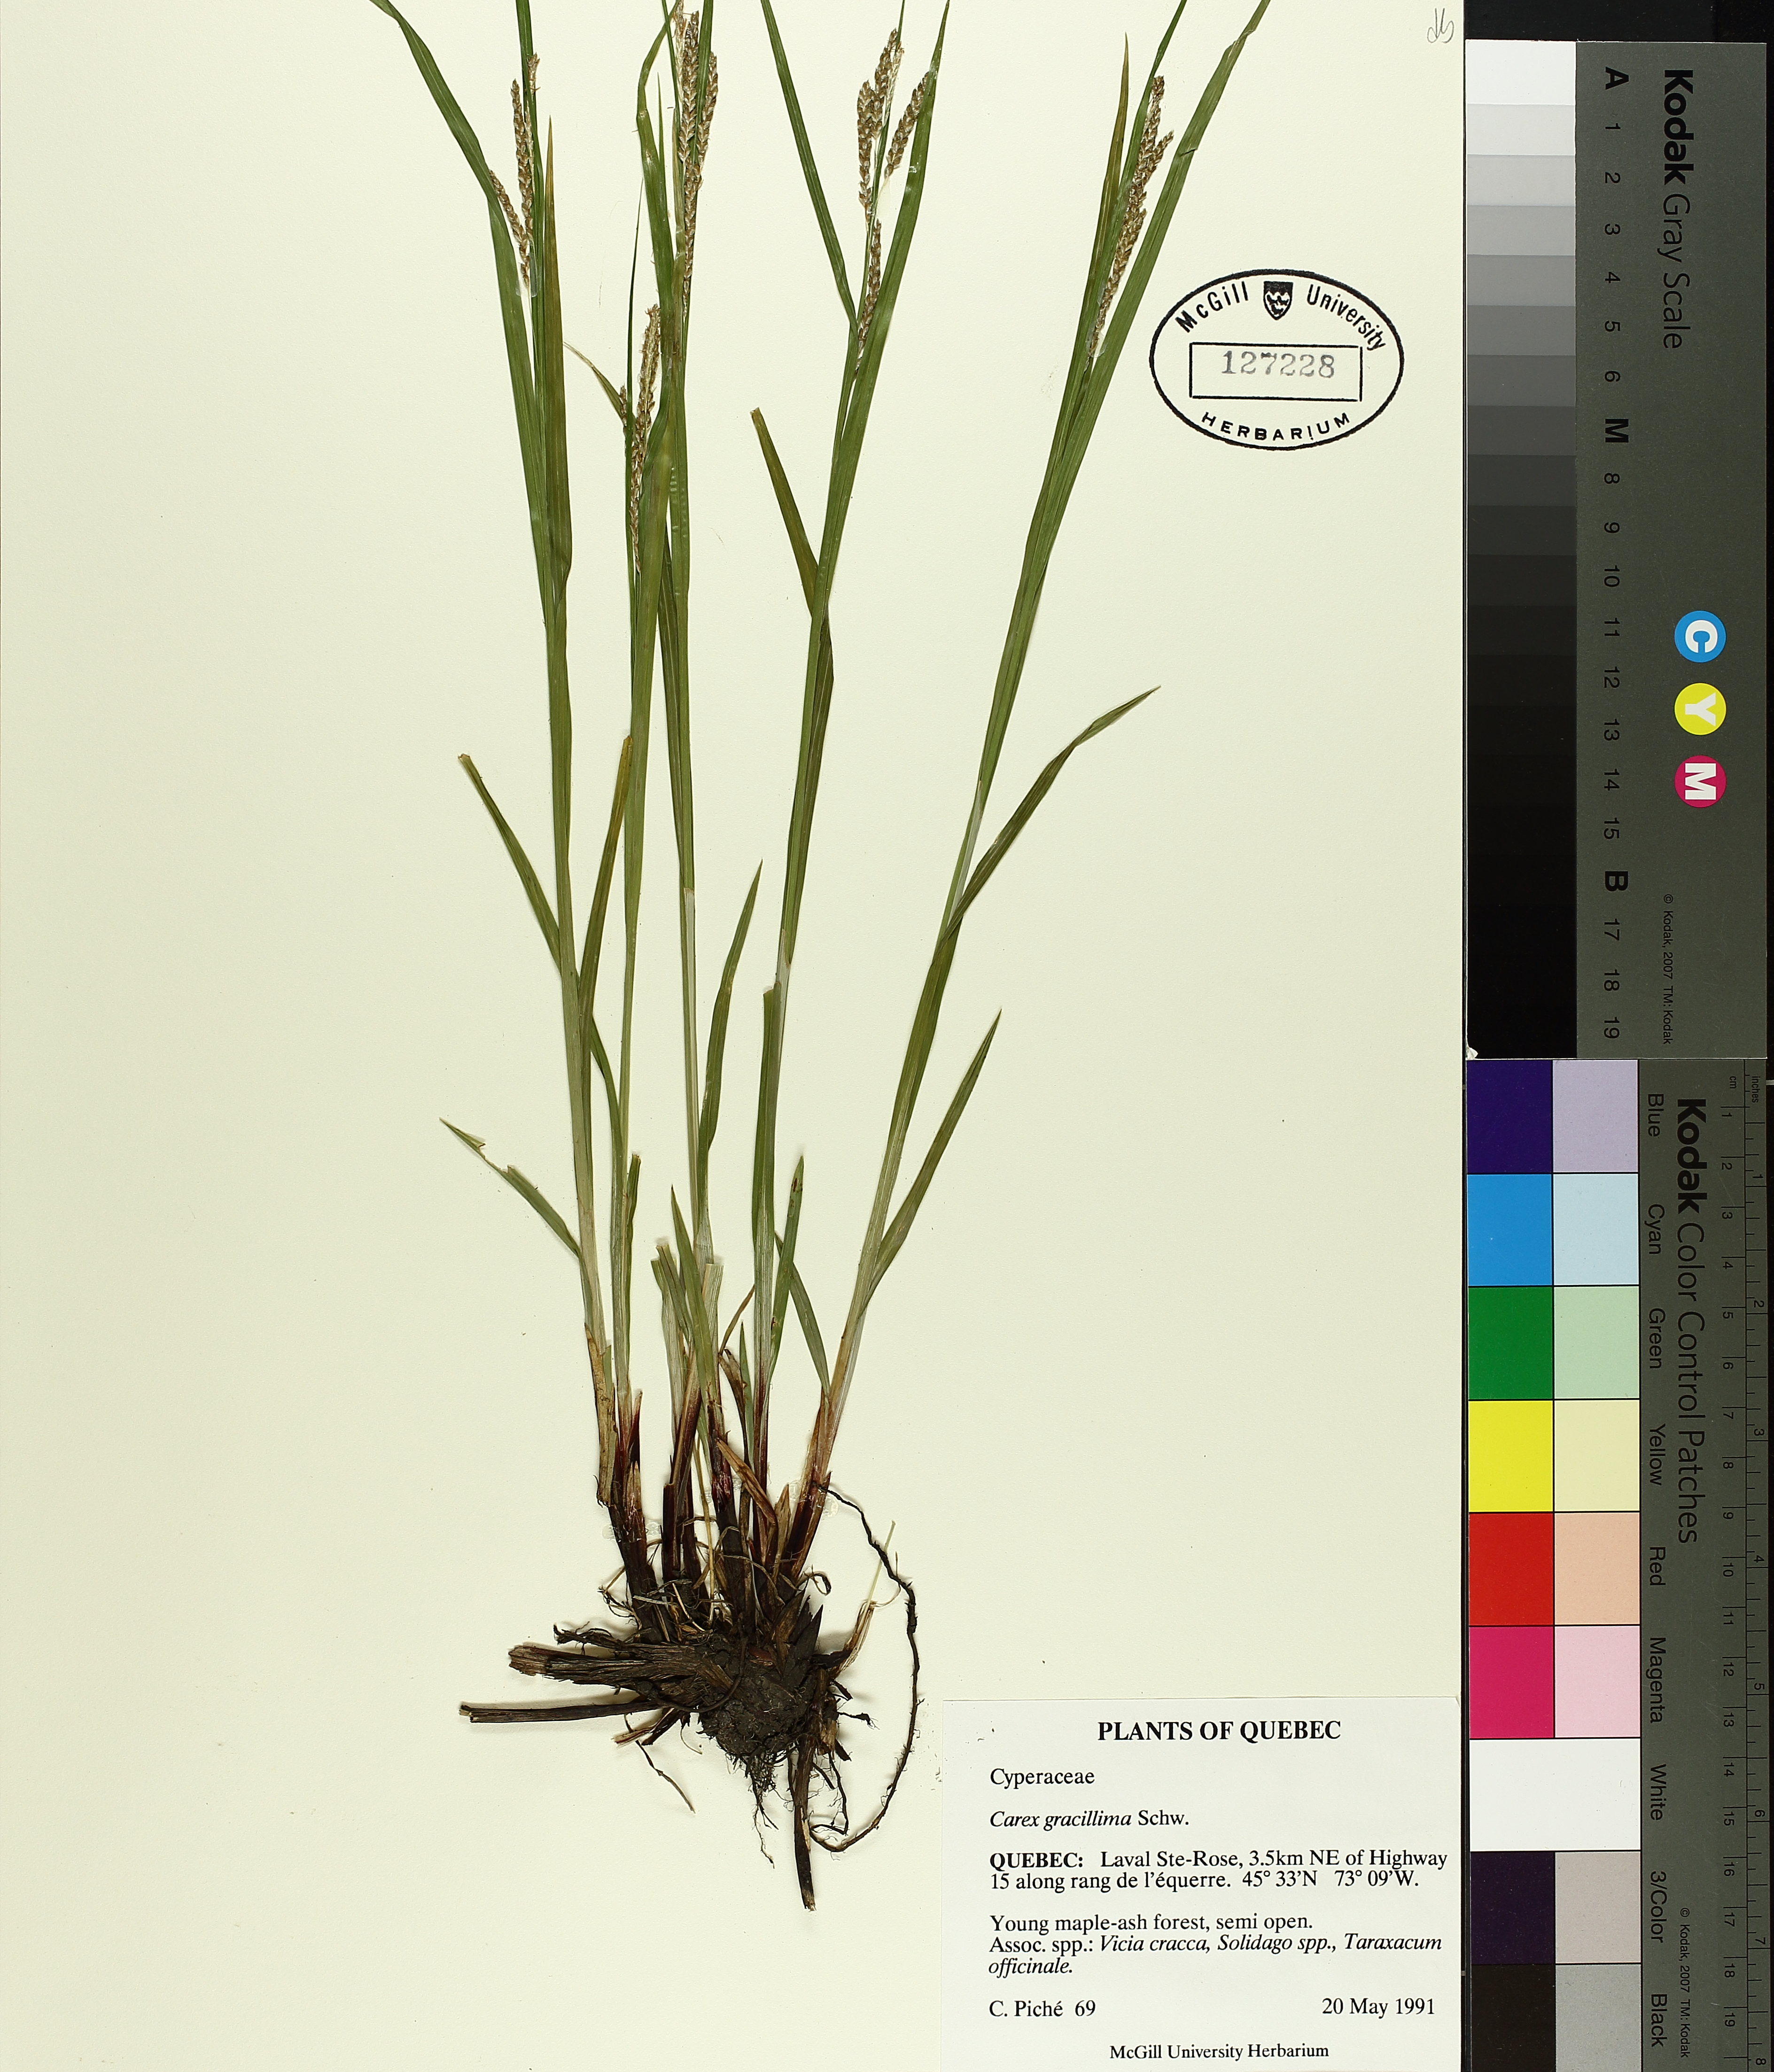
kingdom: Plantae
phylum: Tracheophyta
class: Liliopsida
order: Poales
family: Cyperaceae
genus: Carex
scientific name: Carex gracillima
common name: Graceful sedge
